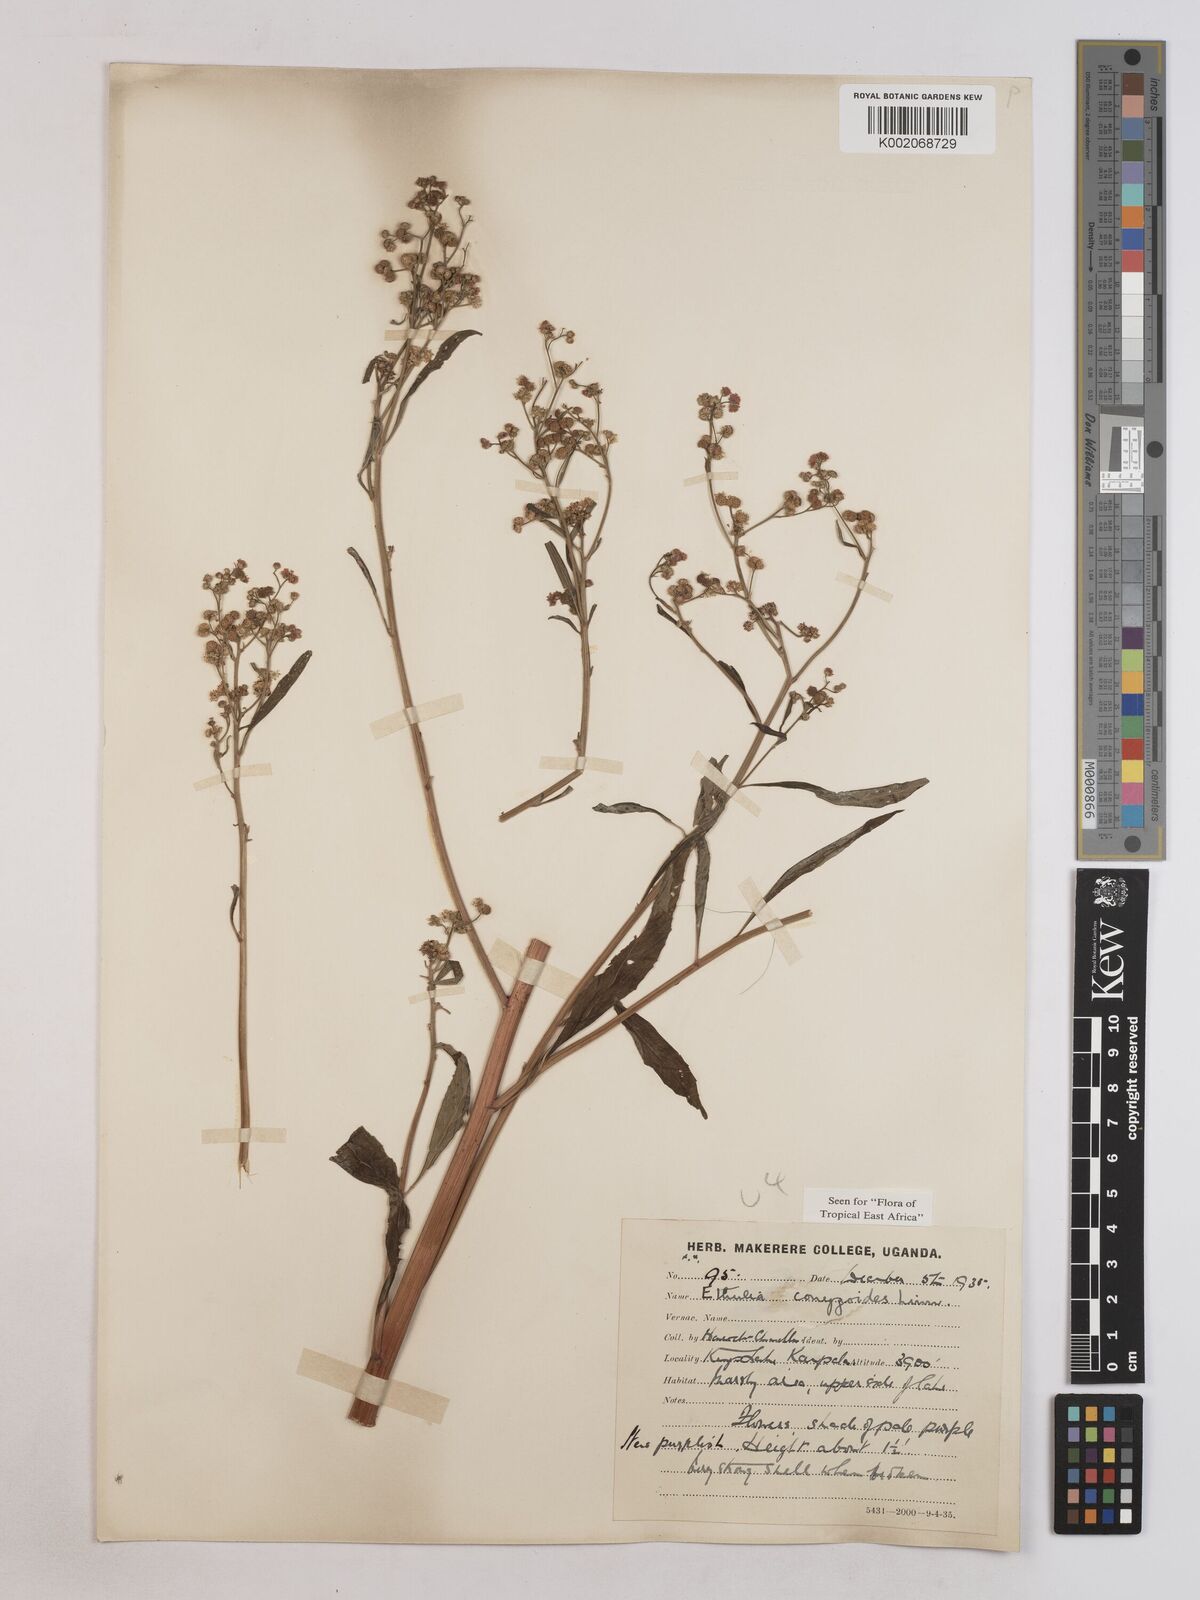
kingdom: Plantae
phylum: Tracheophyta
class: Magnoliopsida
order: Asterales
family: Asteraceae
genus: Ethulia
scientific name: Ethulia conyzoides
